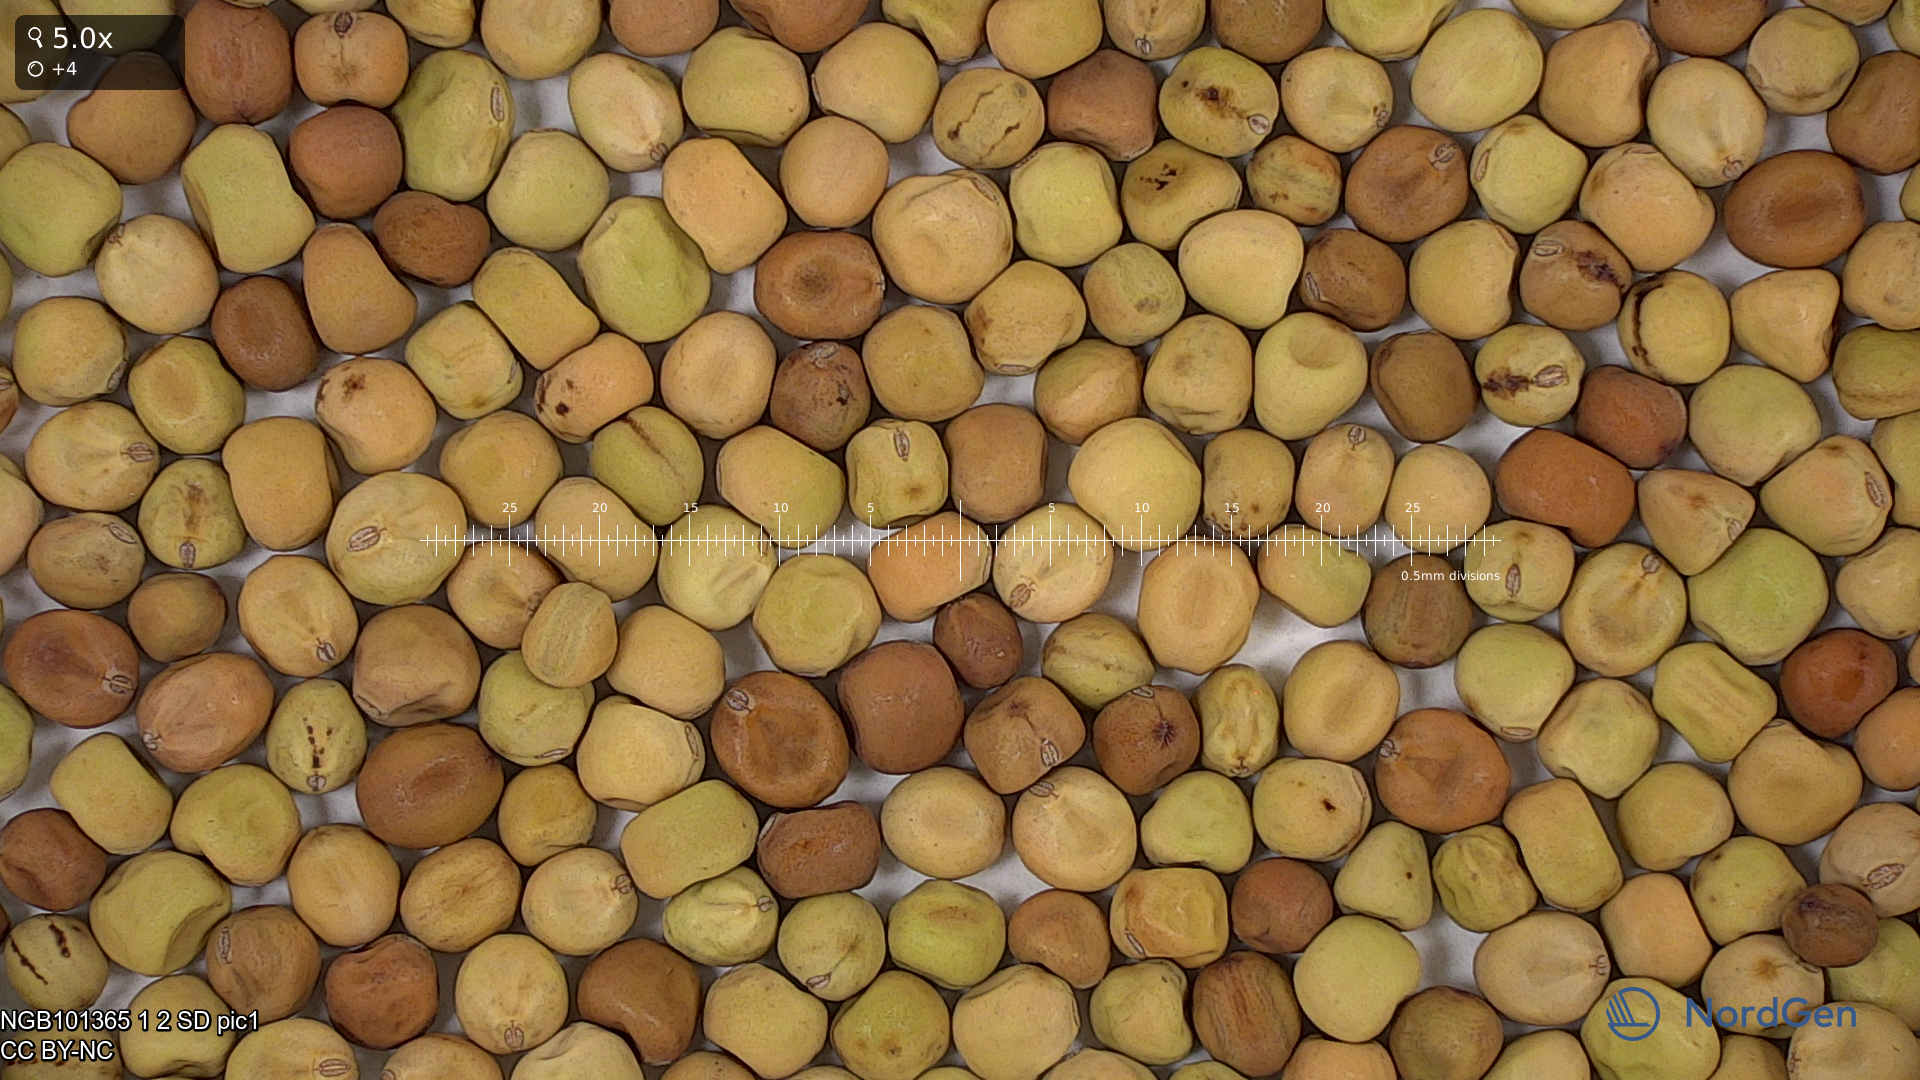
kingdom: Plantae
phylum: Tracheophyta
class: Magnoliopsida
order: Fabales
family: Fabaceae
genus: Lathyrus
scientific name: Lathyrus oleraceus
